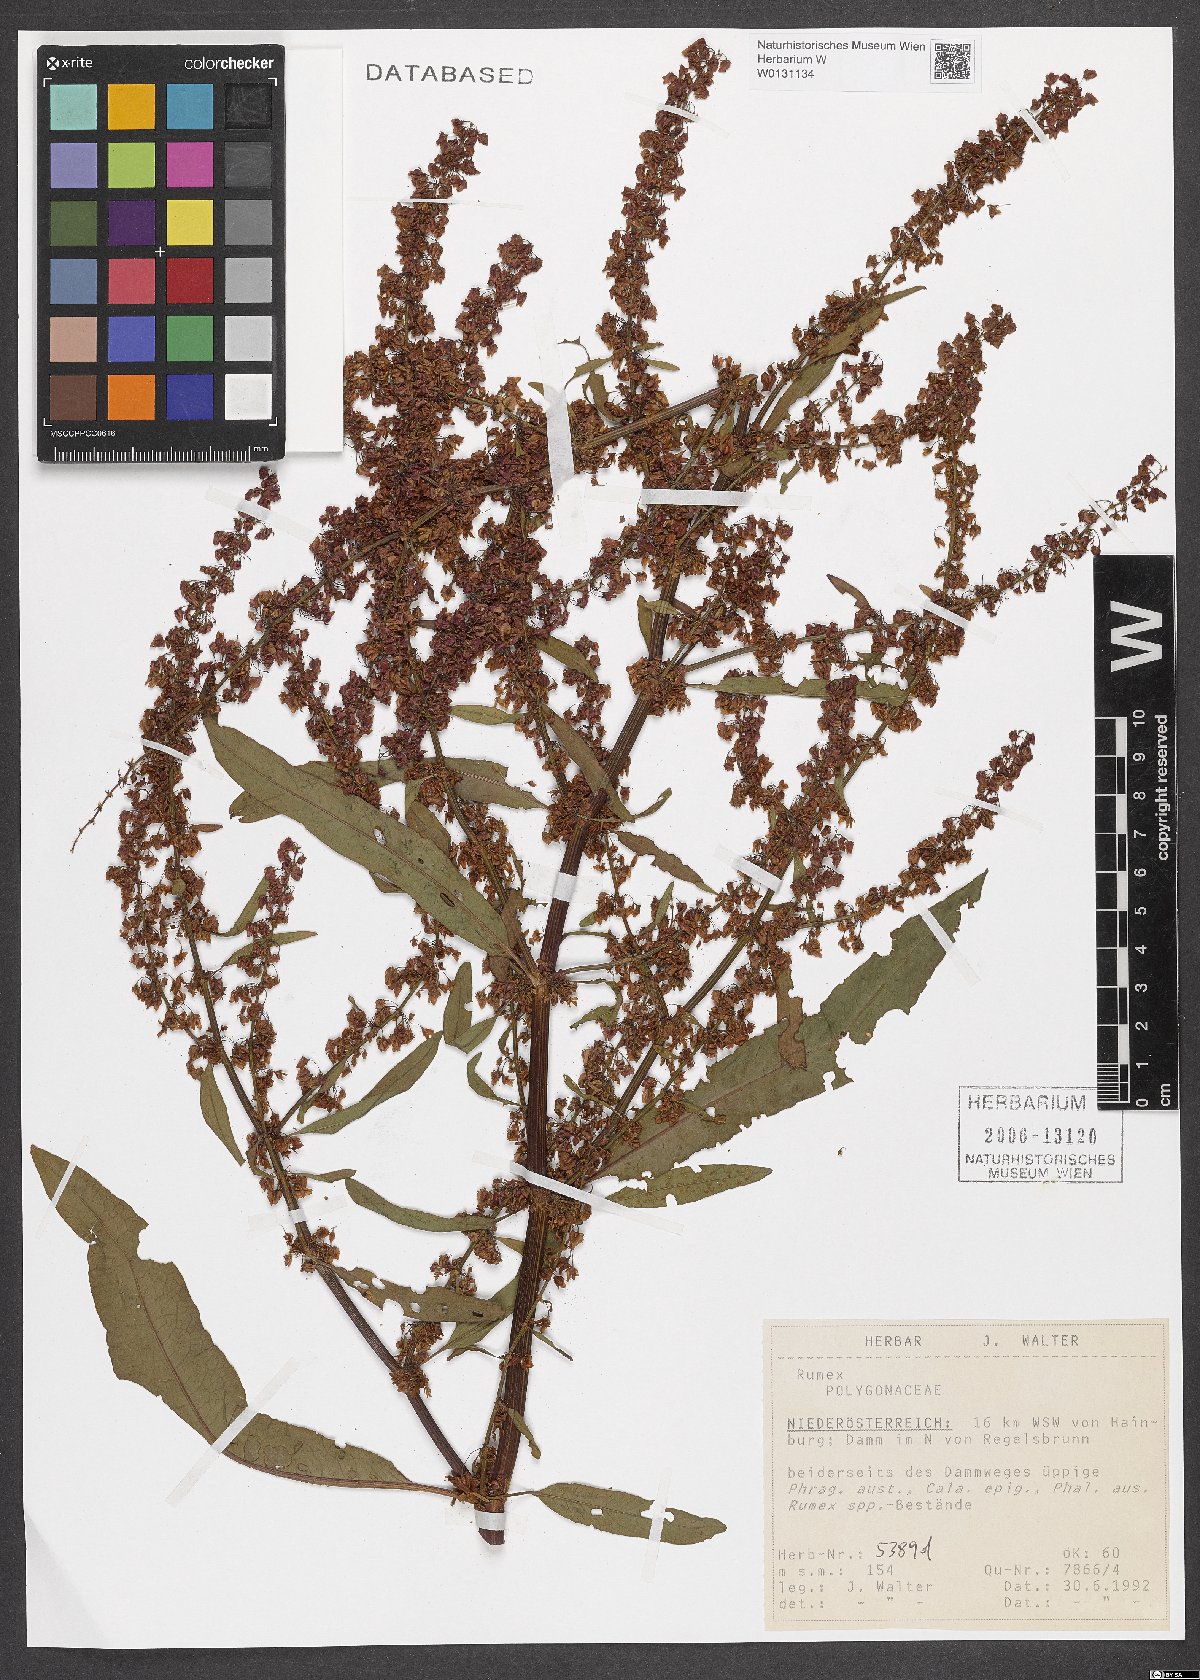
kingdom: Plantae
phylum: Tracheophyta
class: Magnoliopsida
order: Caryophyllales
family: Polygonaceae
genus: Rumex
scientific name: Rumex acetosella
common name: Common sheep sorrel
